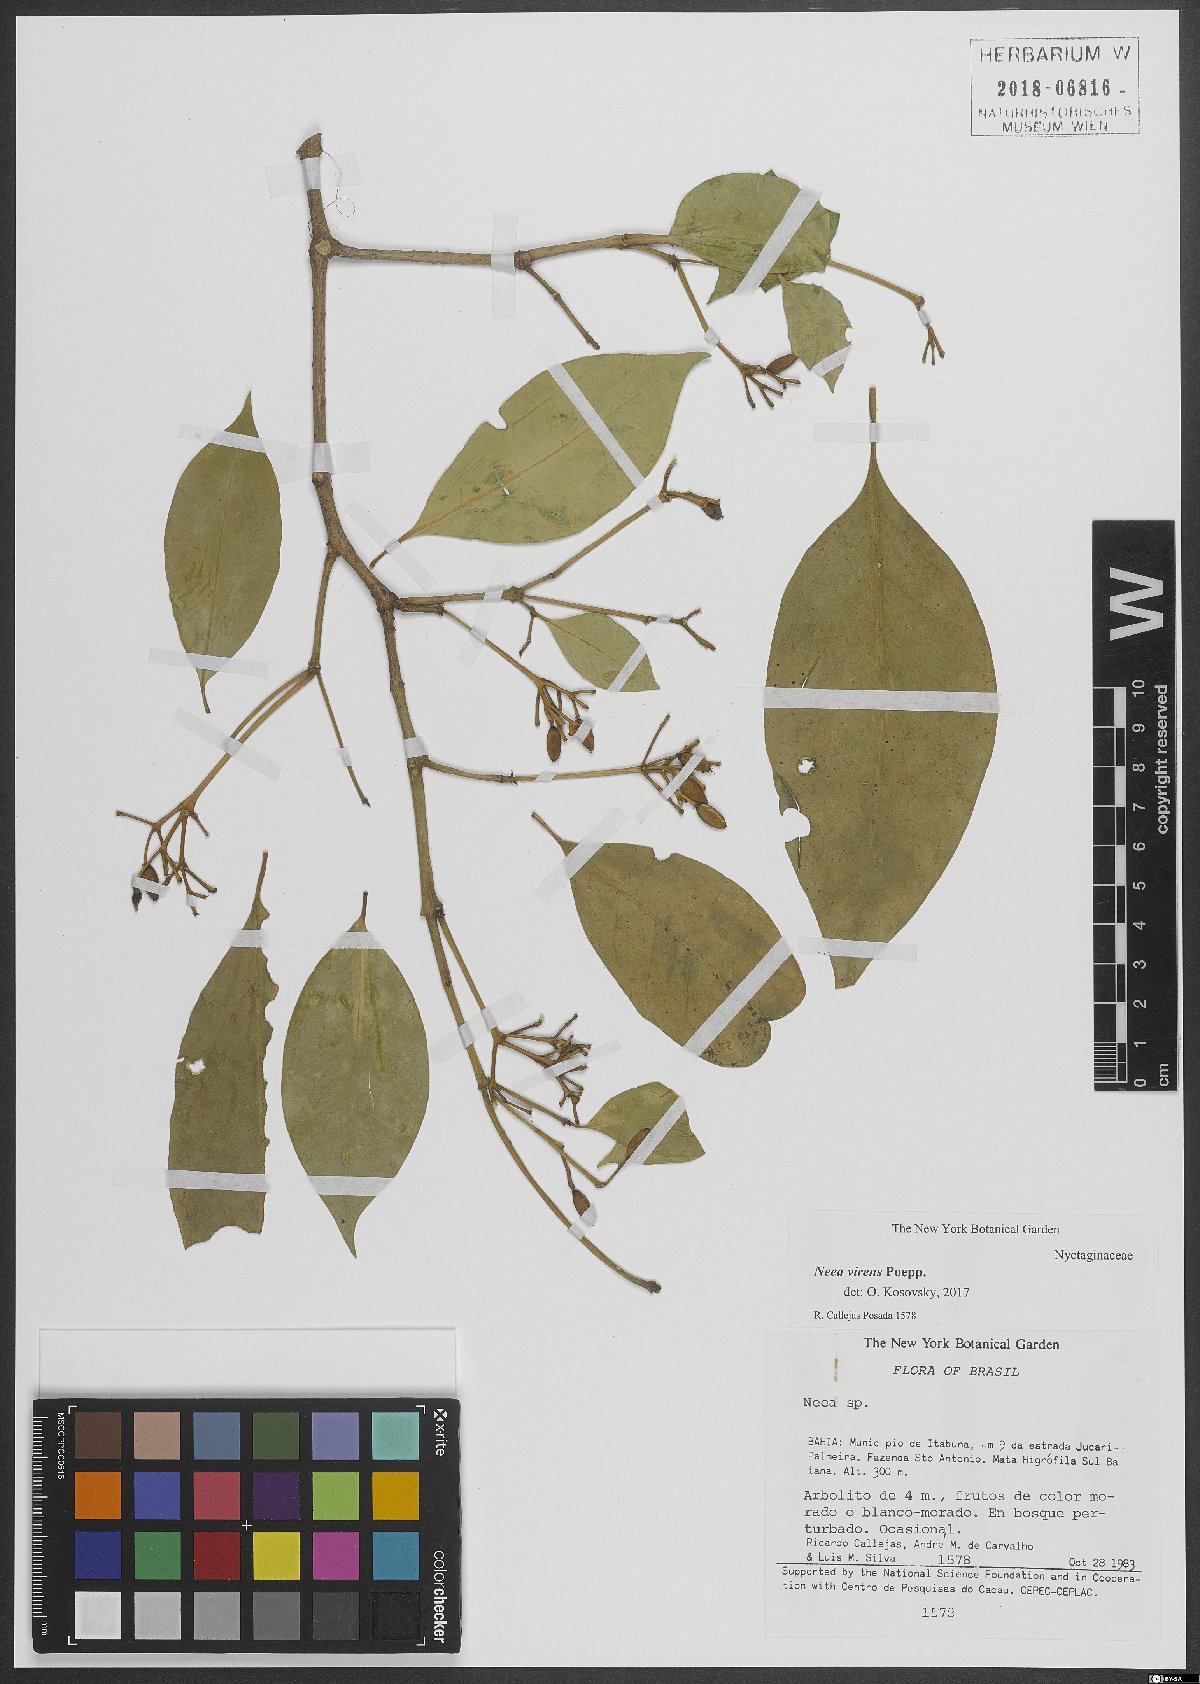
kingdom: Plantae
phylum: Tracheophyta
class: Magnoliopsida
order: Caryophyllales
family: Nyctaginaceae
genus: Neea
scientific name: Neea virens
